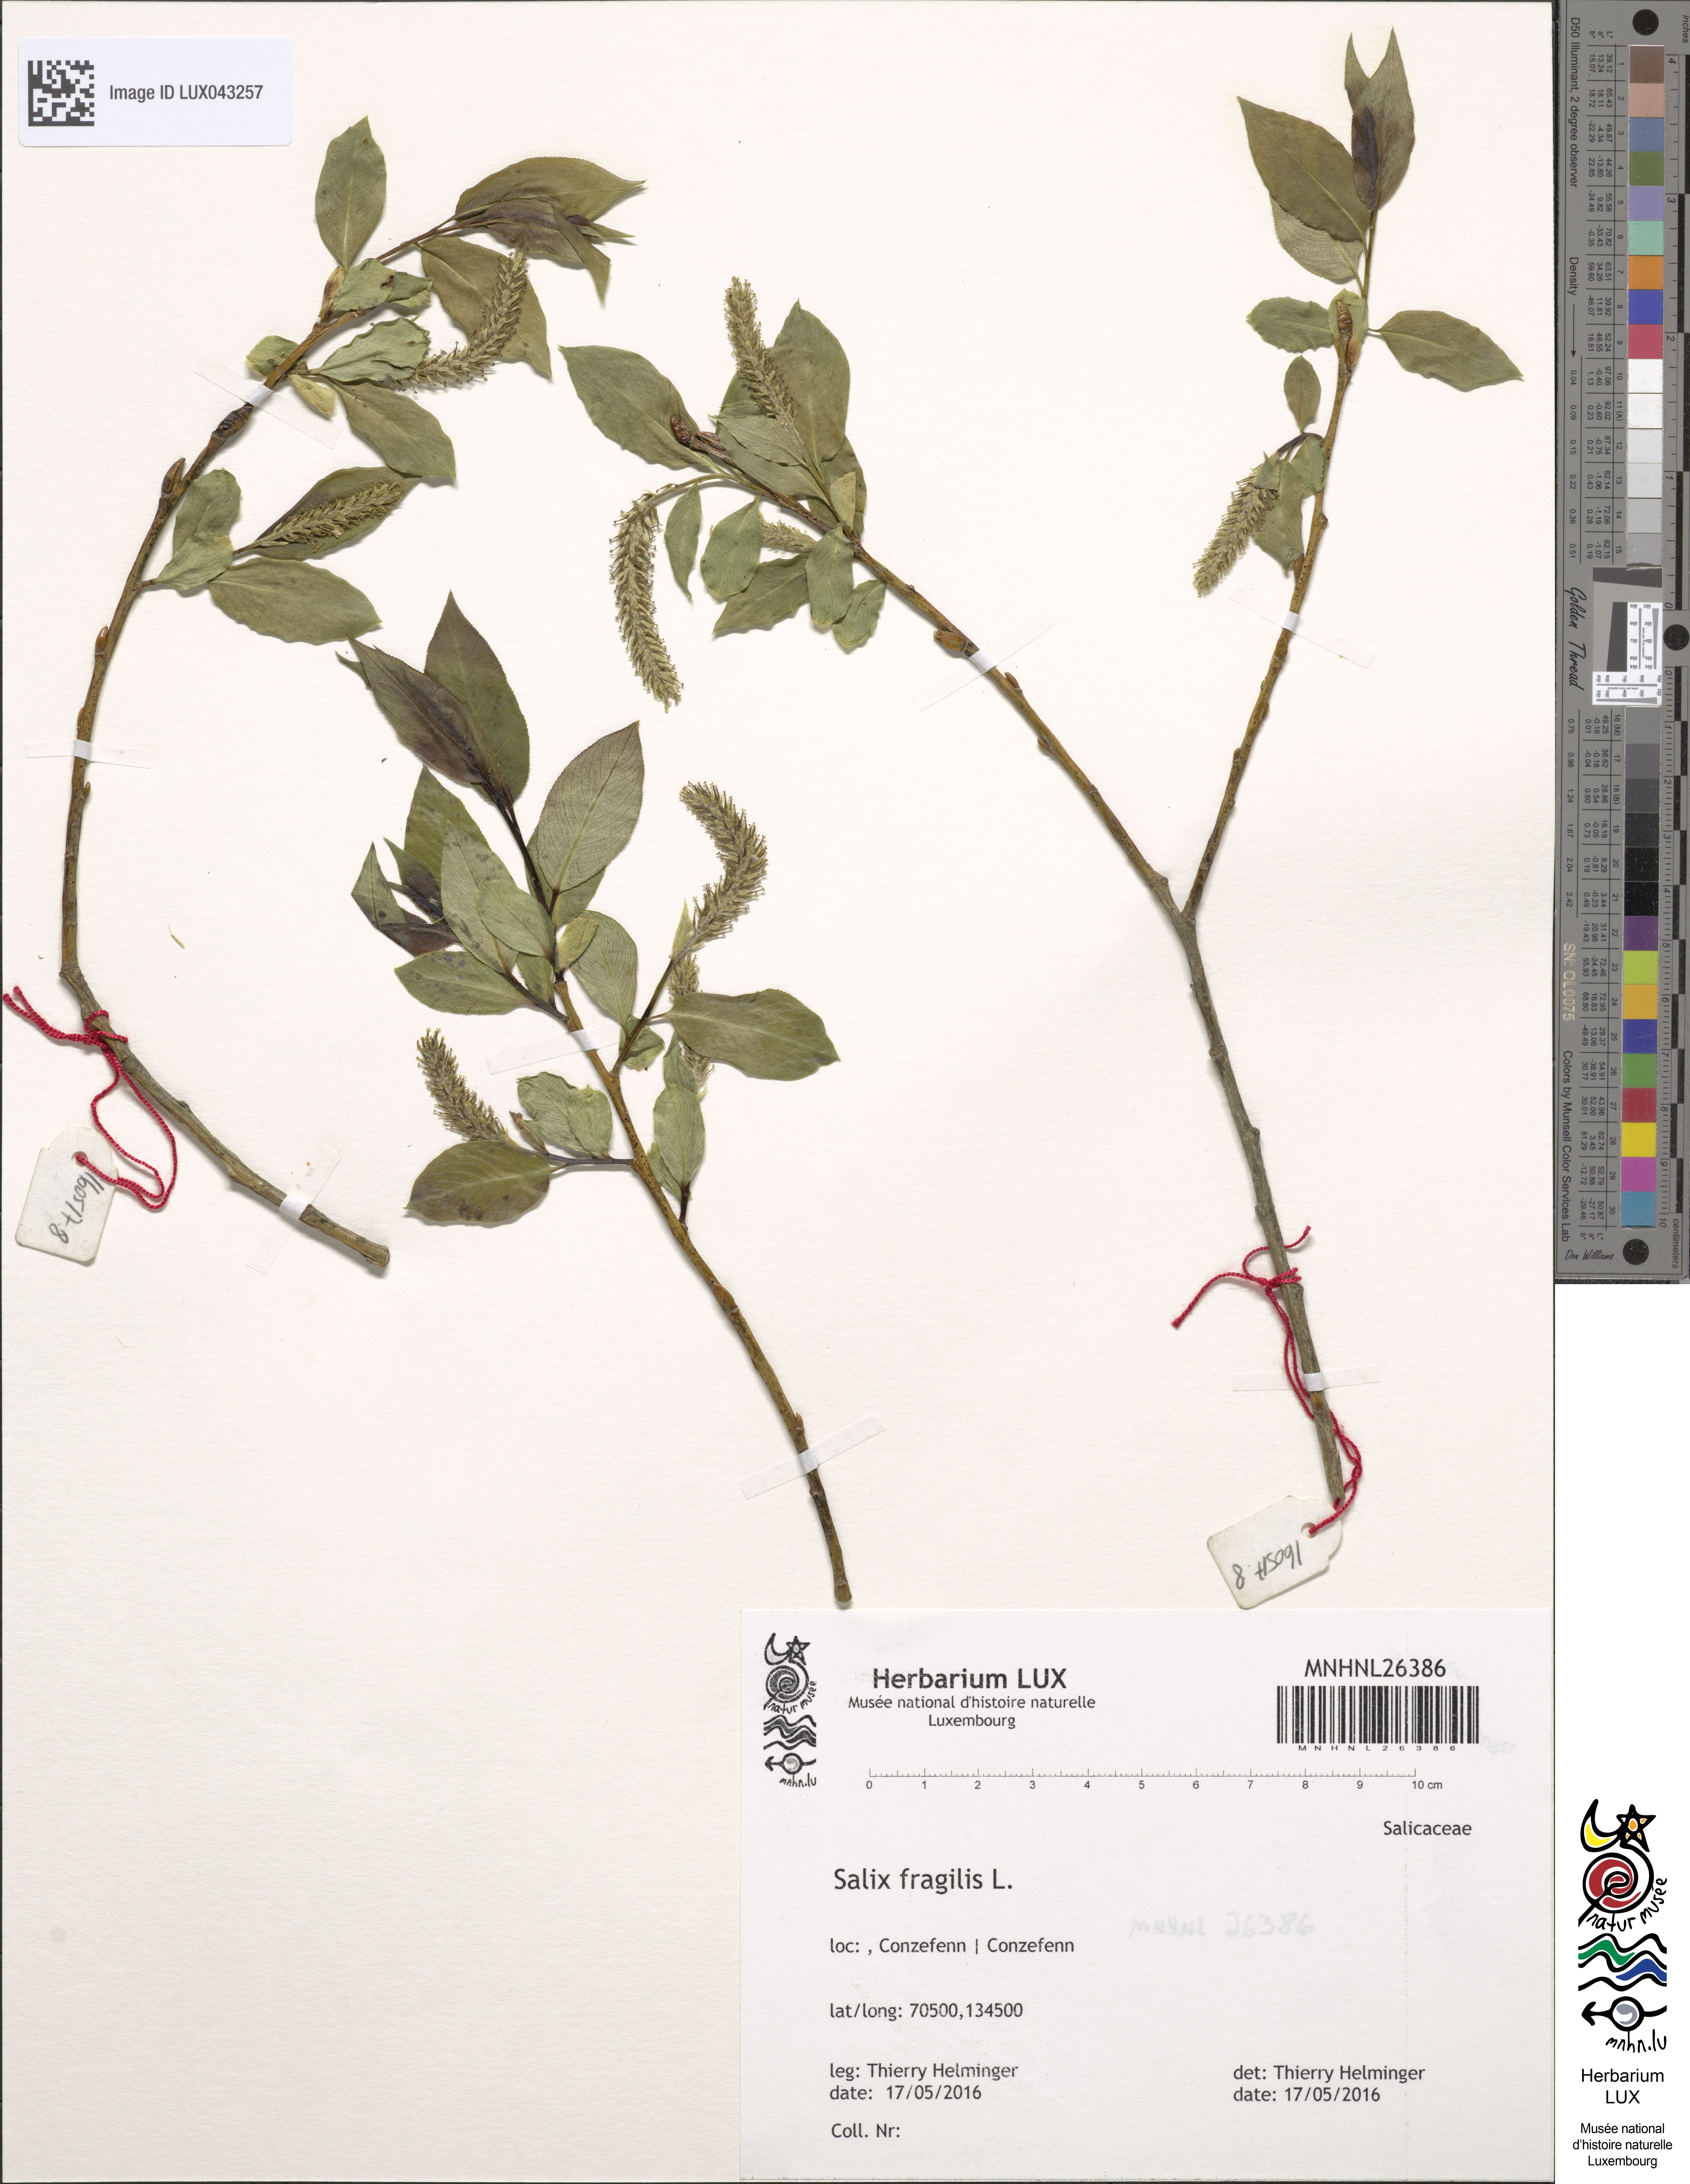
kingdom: Plantae
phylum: Tracheophyta
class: Magnoliopsida
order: Malpighiales
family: Salicaceae
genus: Salix
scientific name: Salix fragilis
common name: Crack willow
